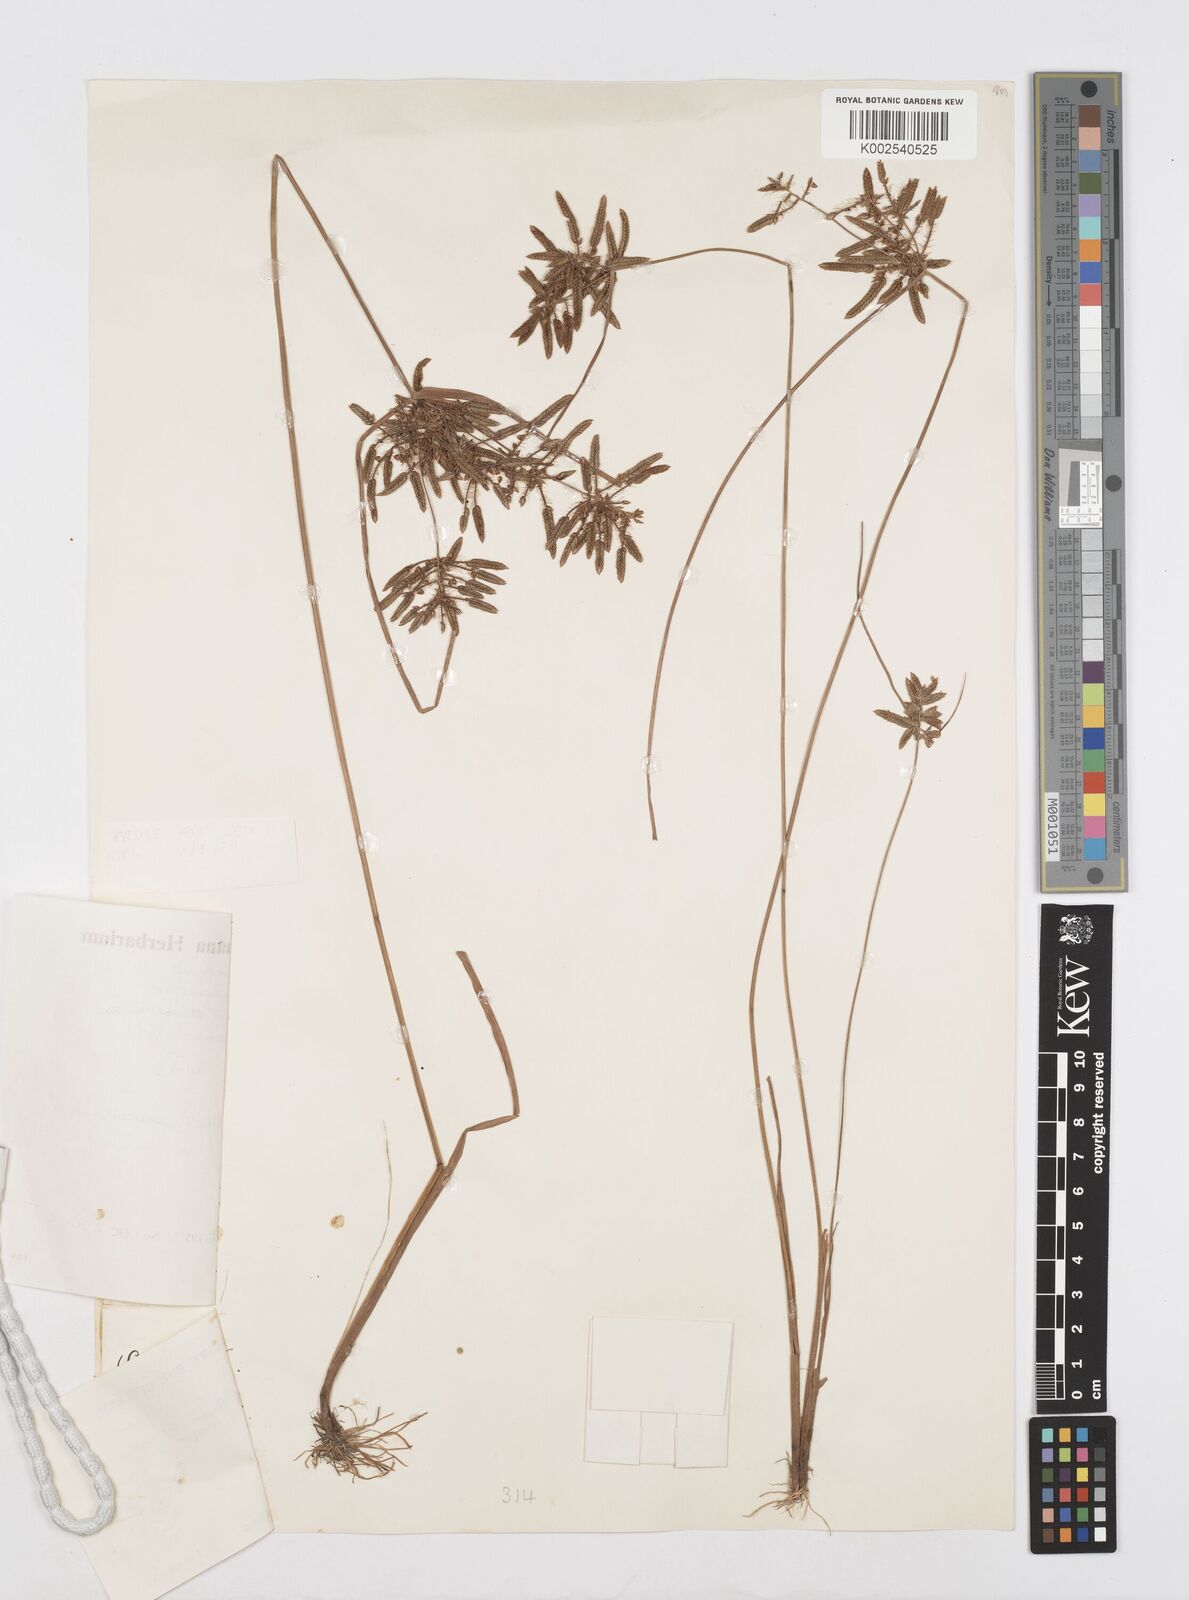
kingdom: Plantae
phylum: Tracheophyta
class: Liliopsida
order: Poales
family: Cyperaceae
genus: Cyperus
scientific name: Cyperus mortonii
